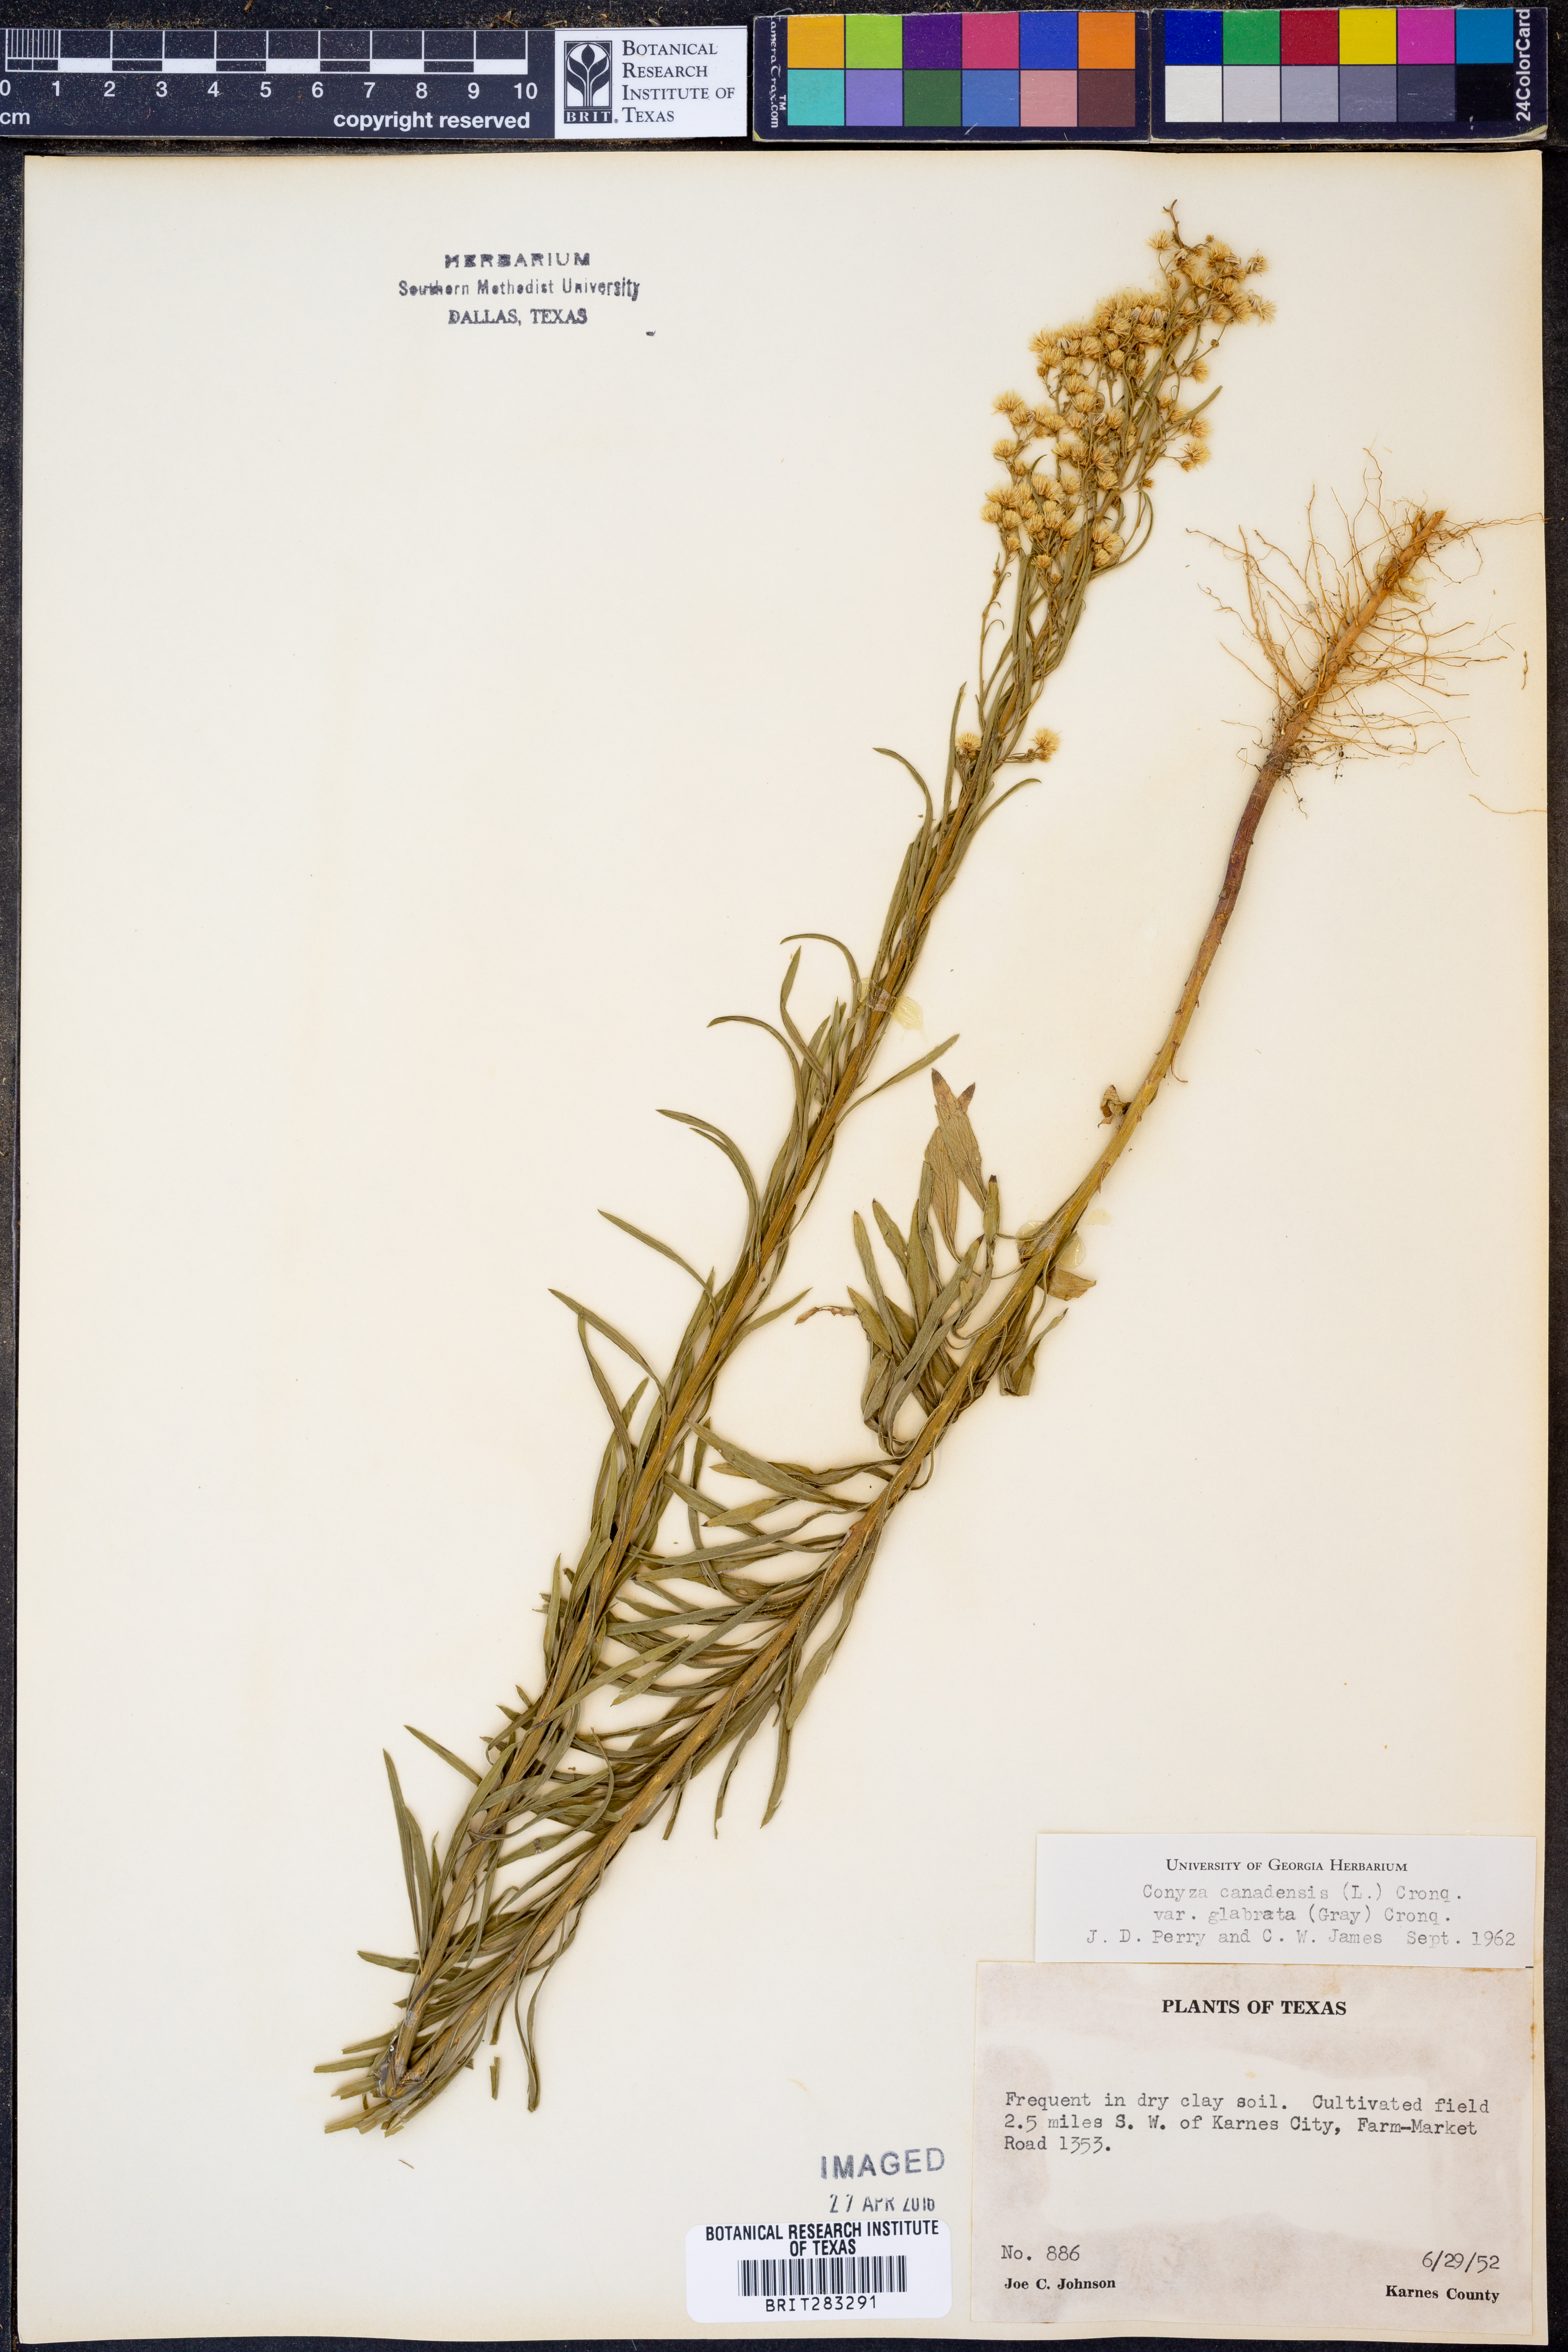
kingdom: Plantae
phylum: Tracheophyta
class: Magnoliopsida
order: Asterales
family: Asteraceae
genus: Erigeron
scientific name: Erigeron canadensis
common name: Canadian fleabane
